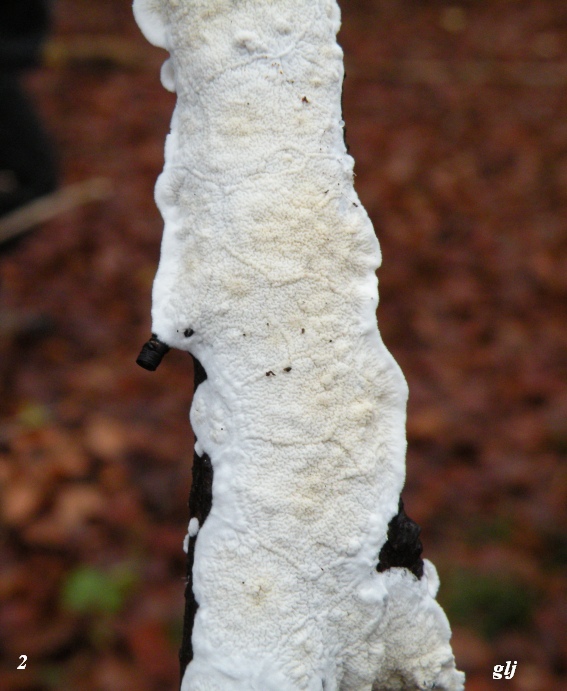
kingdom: Fungi
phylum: Basidiomycota
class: Agaricomycetes
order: Polyporales
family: Irpicaceae
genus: Byssomerulius
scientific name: Byssomerulius corium
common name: læder-åresvamp
